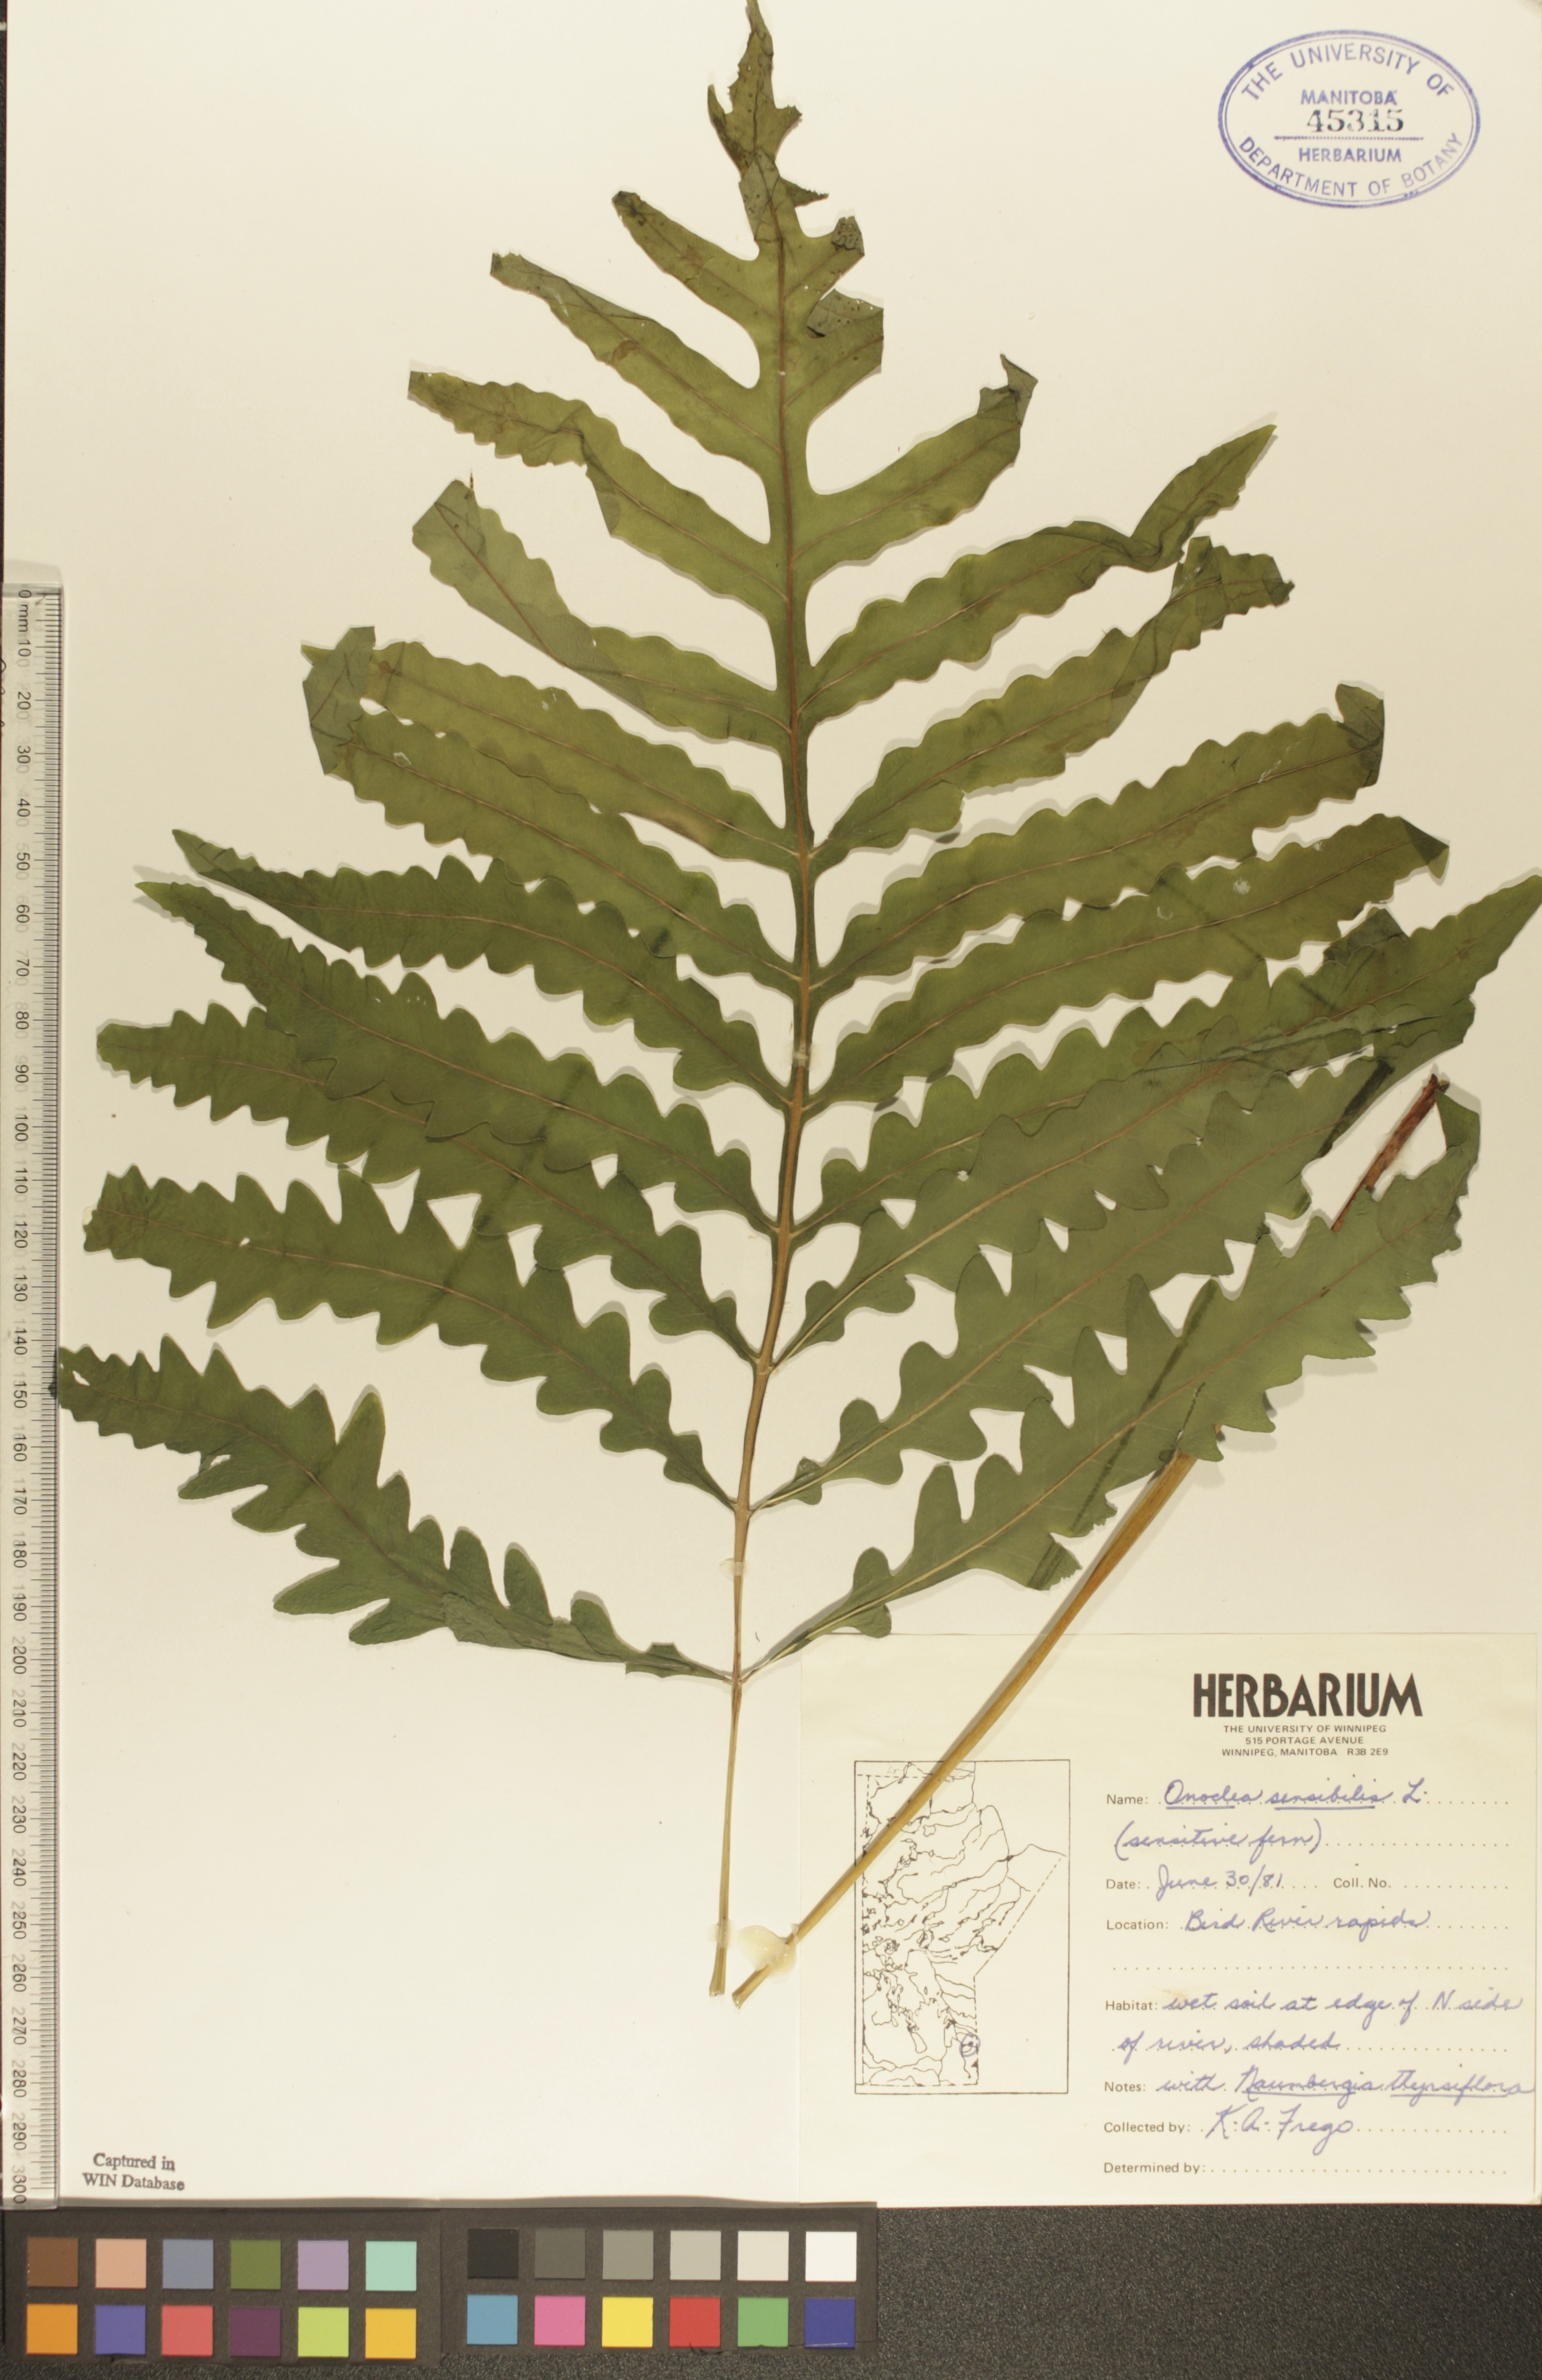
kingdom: Plantae
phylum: Tracheophyta
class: Polypodiopsida
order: Polypodiales
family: Onocleaceae
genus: Onoclea
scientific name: Onoclea sensibilis
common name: Sensitive fern
